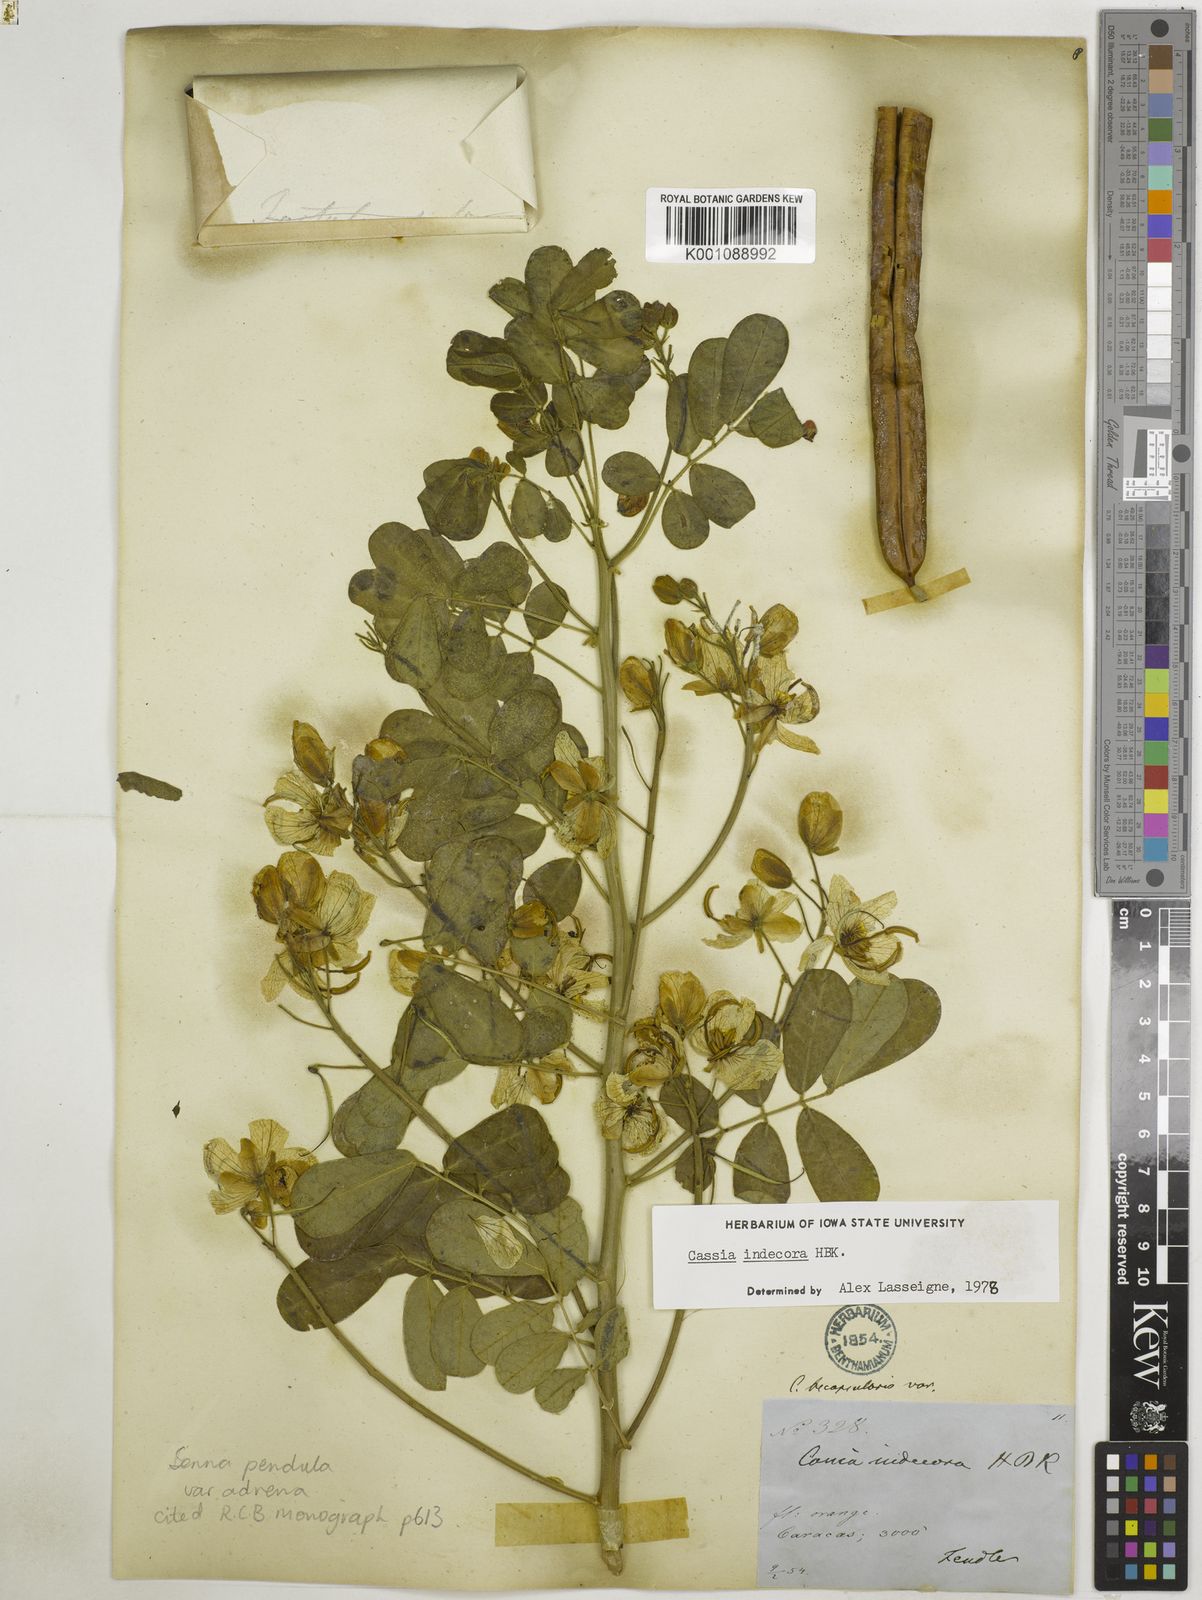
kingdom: Plantae
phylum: Tracheophyta
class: Magnoliopsida
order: Fabales
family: Fabaceae
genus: Senna
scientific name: Senna pendula
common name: Easter cassia
